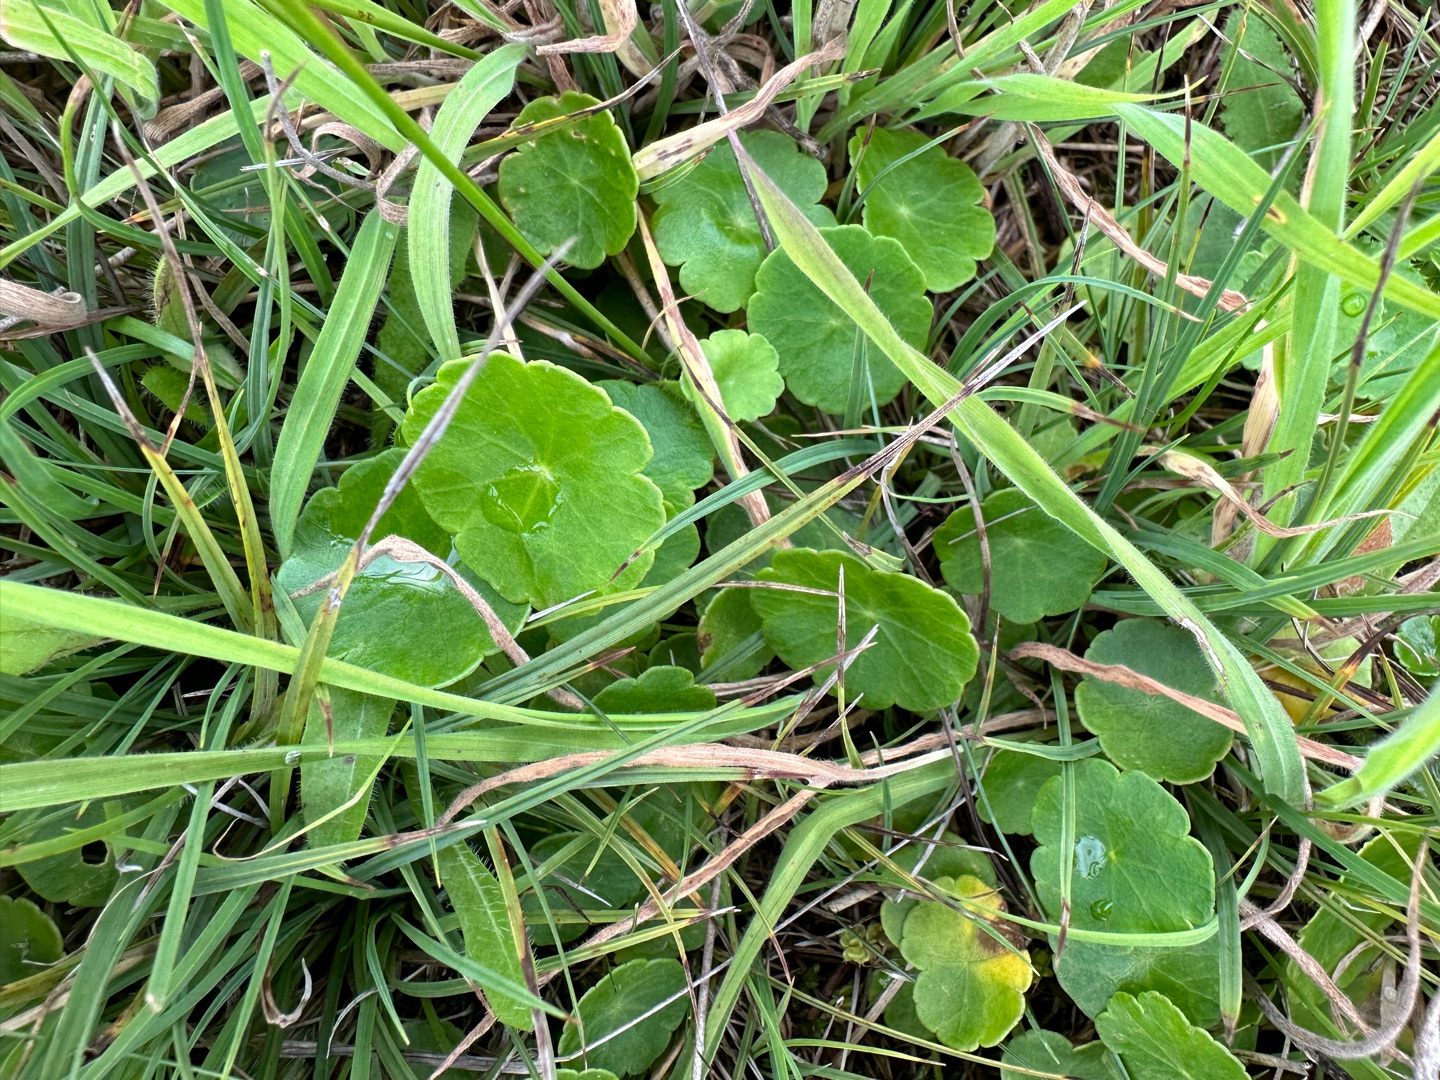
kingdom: Plantae
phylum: Tracheophyta
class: Magnoliopsida
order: Apiales
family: Araliaceae
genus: Hydrocotyle
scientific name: Hydrocotyle vulgaris
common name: Vandnavle
